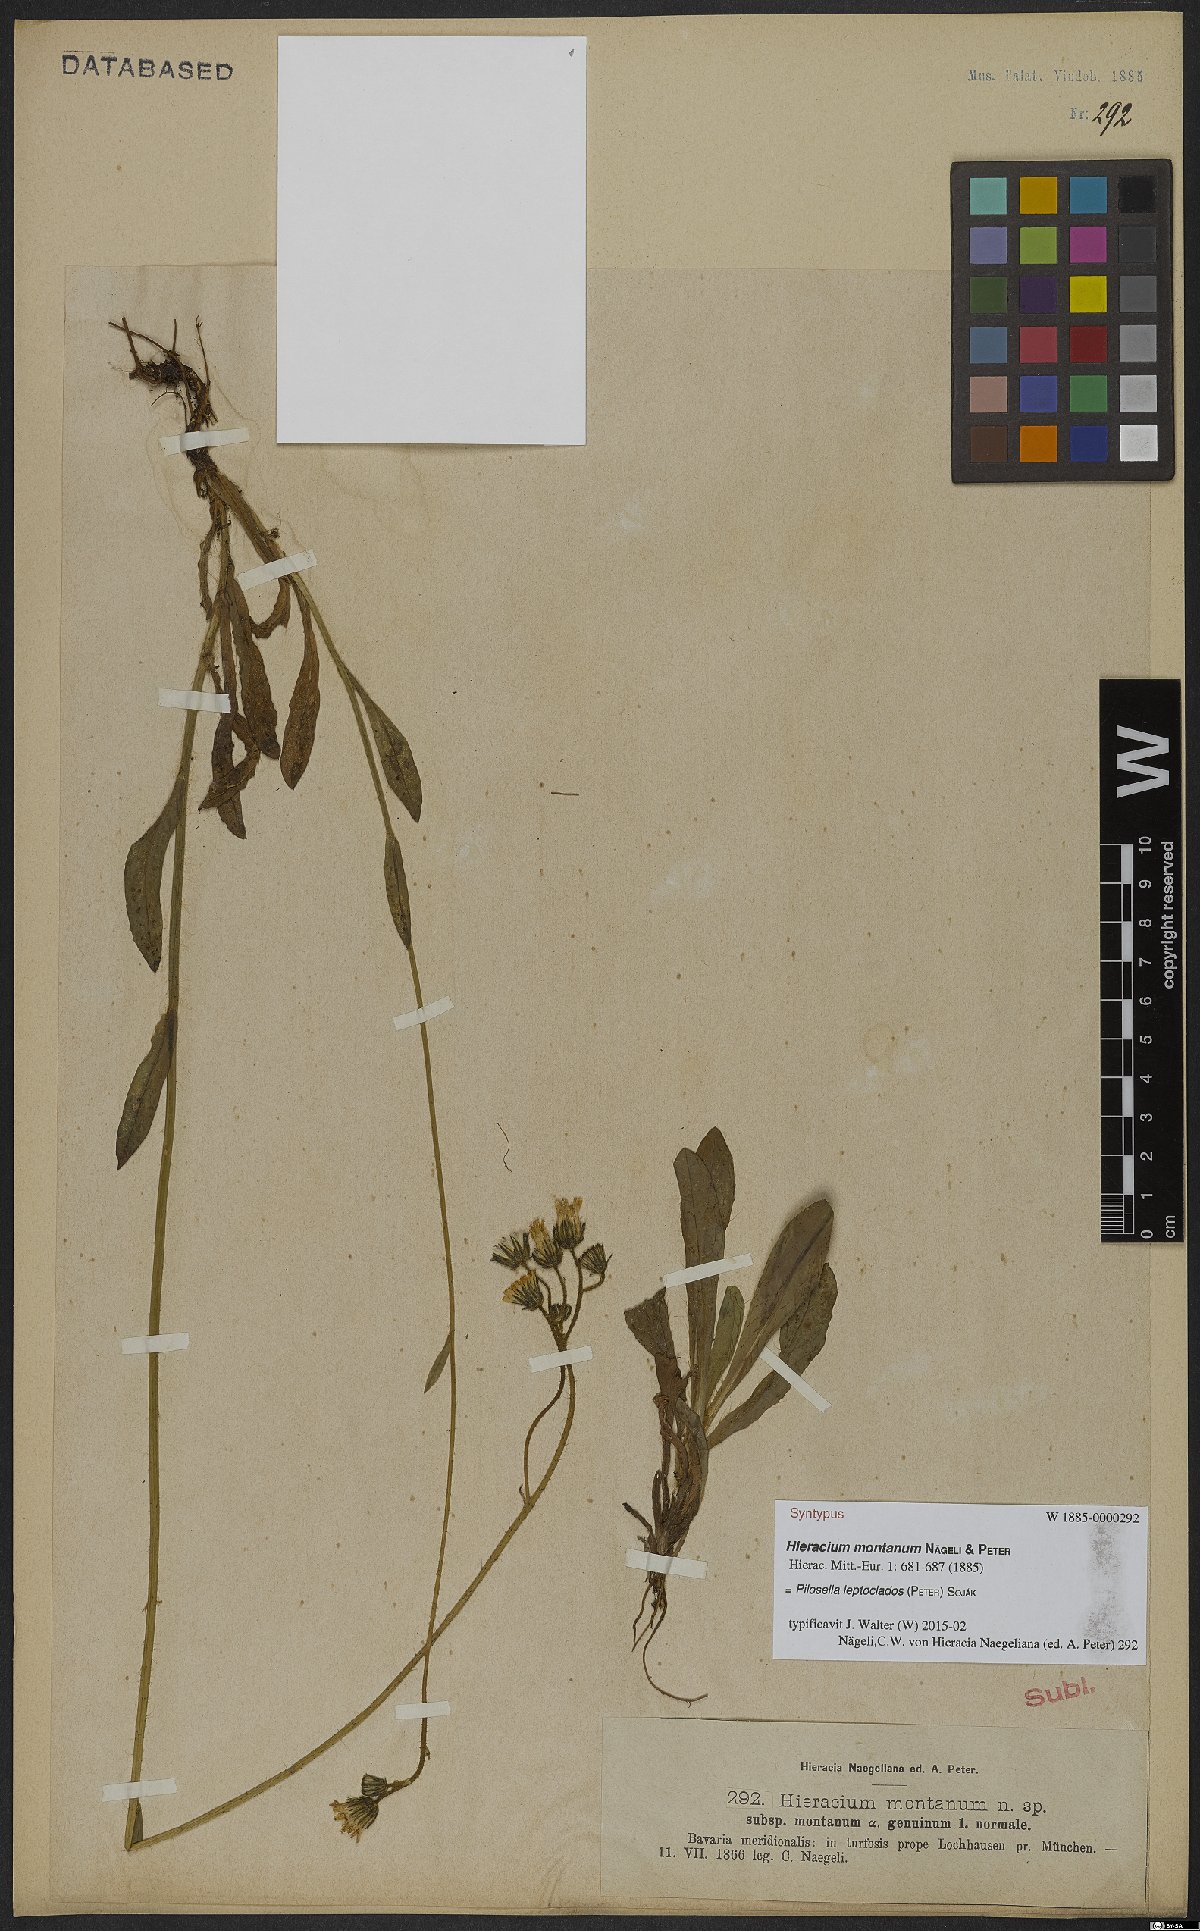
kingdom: Plantae
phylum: Tracheophyta
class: Magnoliopsida
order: Asterales
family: Asteraceae
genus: Pilosella
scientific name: Pilosella leptoclados
